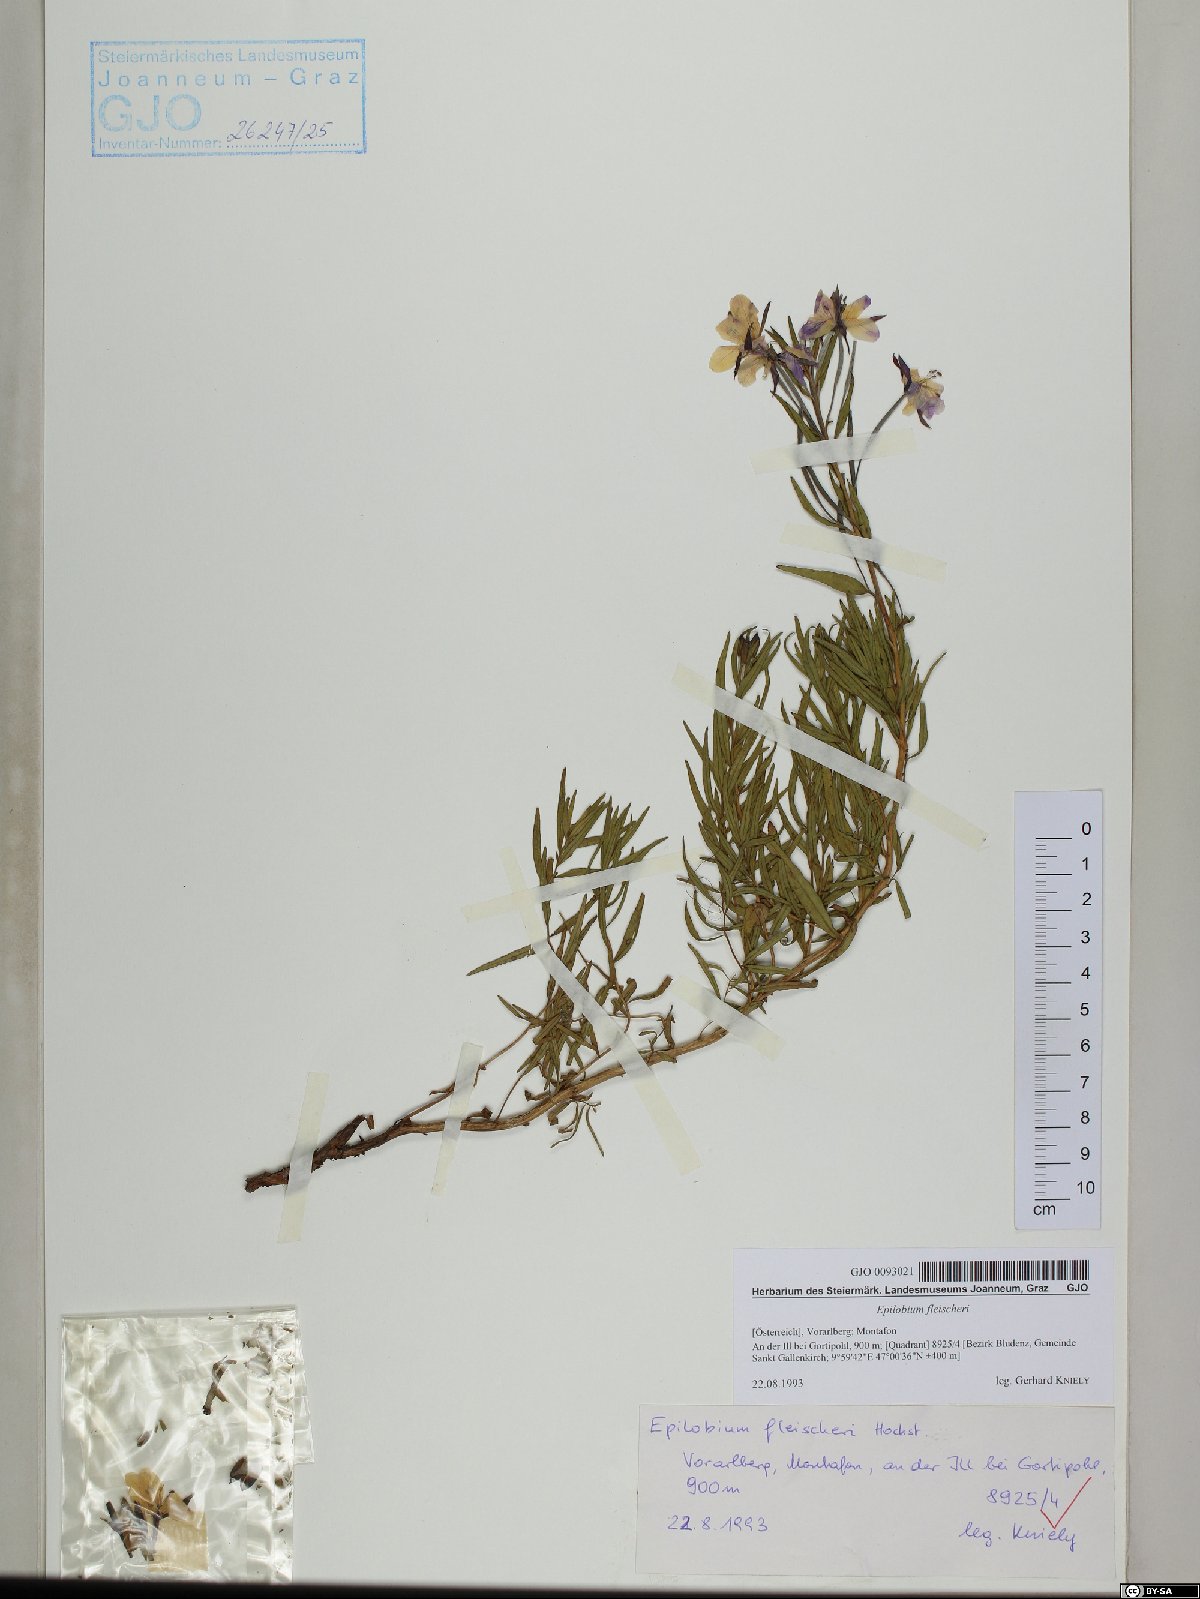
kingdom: Plantae
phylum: Tracheophyta
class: Magnoliopsida
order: Myrtales
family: Onagraceae
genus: Chamaenerion
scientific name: Chamaenerion fleischeri
